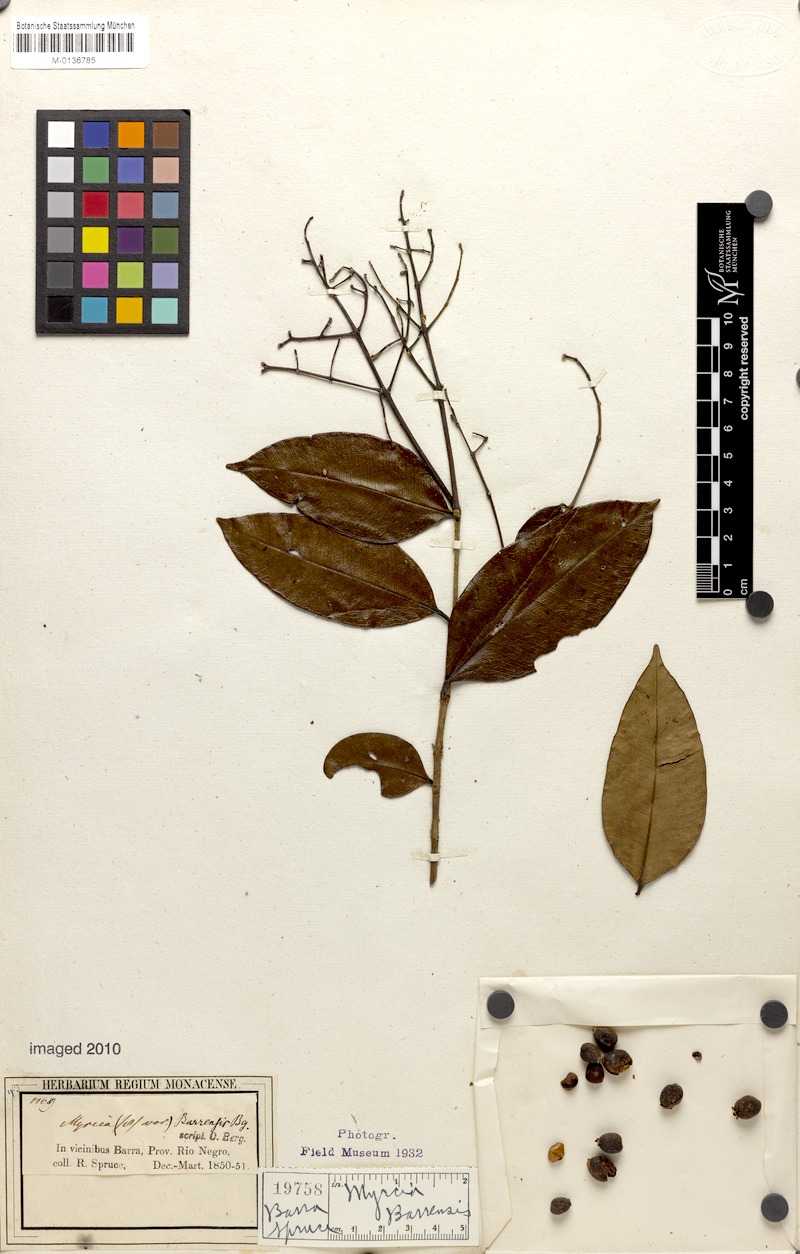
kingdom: Plantae
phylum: Tracheophyta
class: Magnoliopsida
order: Myrtales
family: Myrtaceae
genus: Myrcia
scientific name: Myrcia splendens
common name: Surinam cherry
